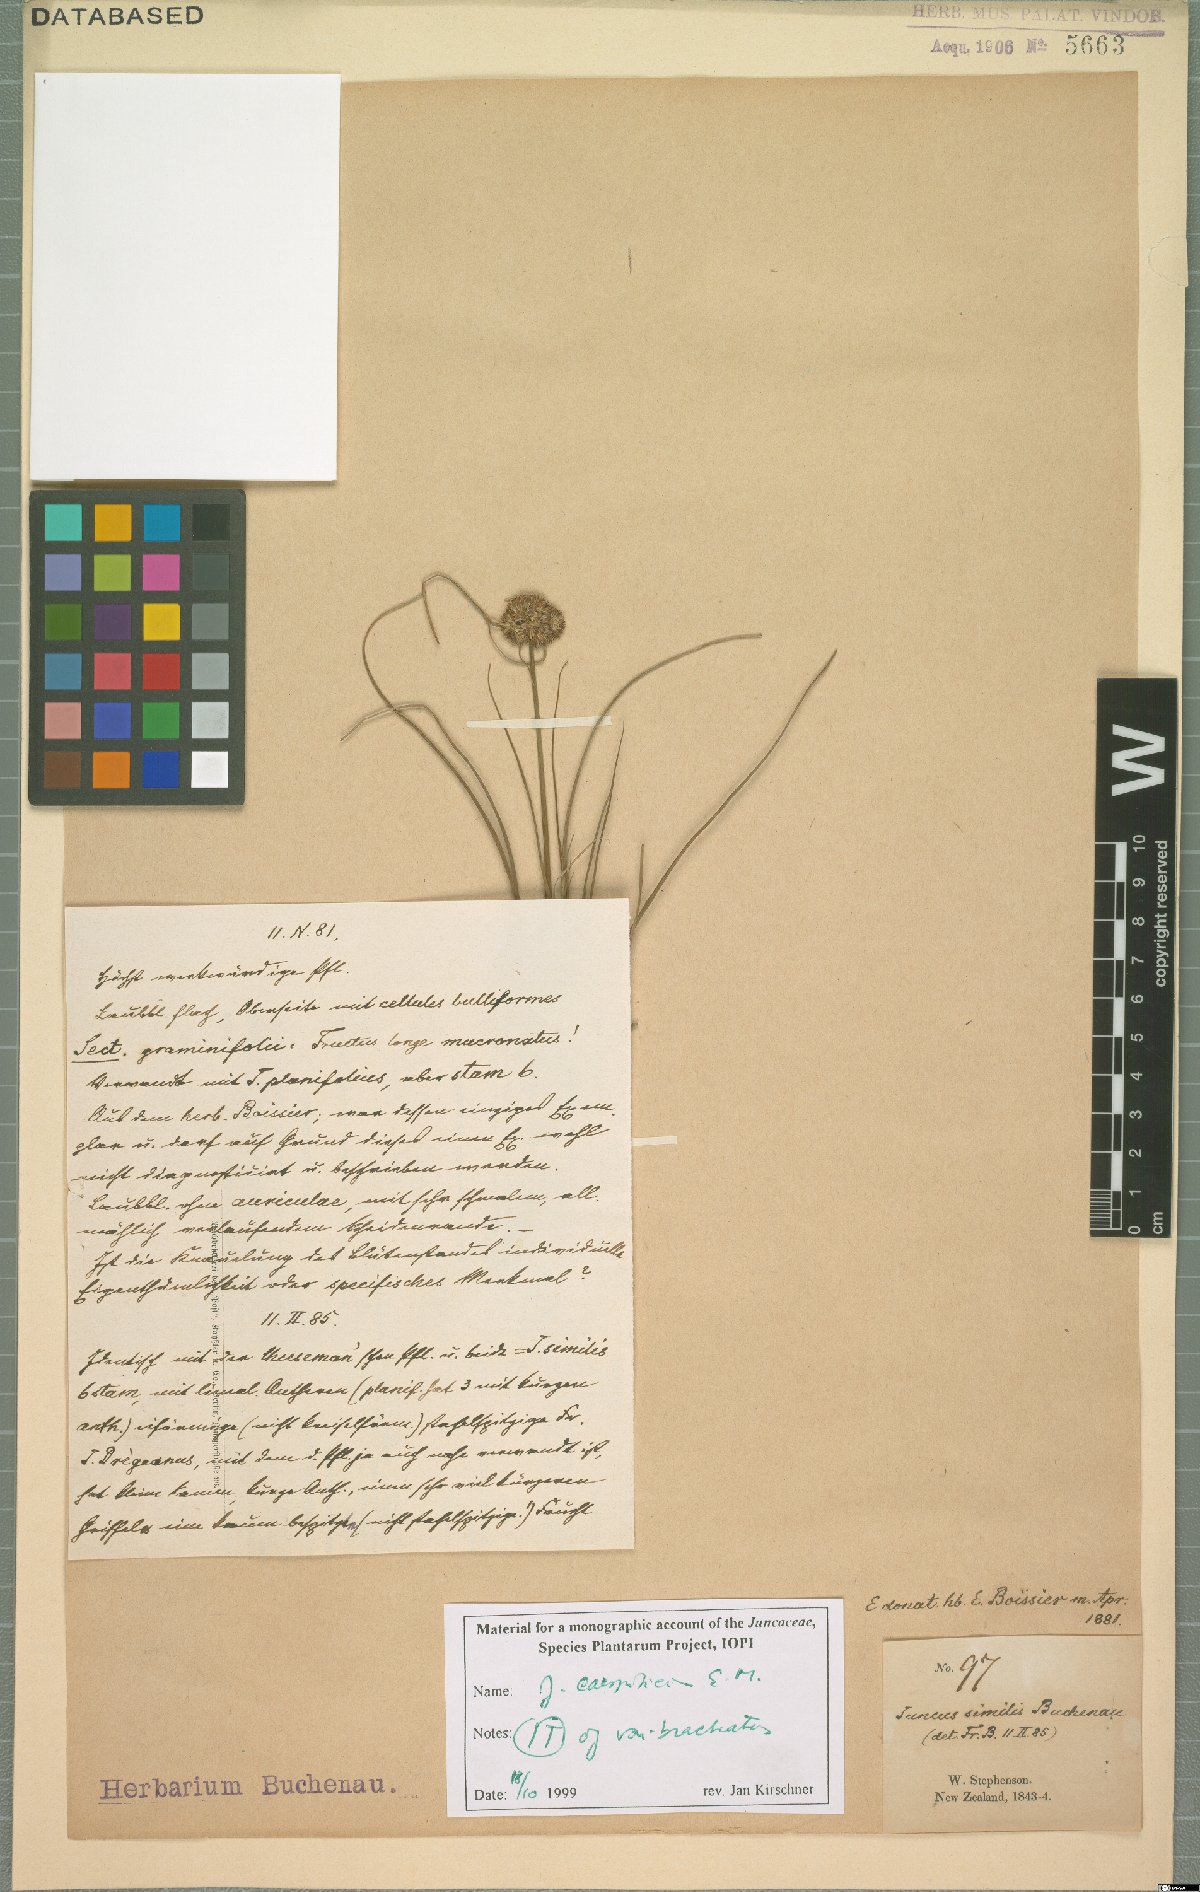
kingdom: Plantae
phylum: Tracheophyta
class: Liliopsida
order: Poales
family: Juncaceae
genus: Juncus
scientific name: Juncus caespiticius
